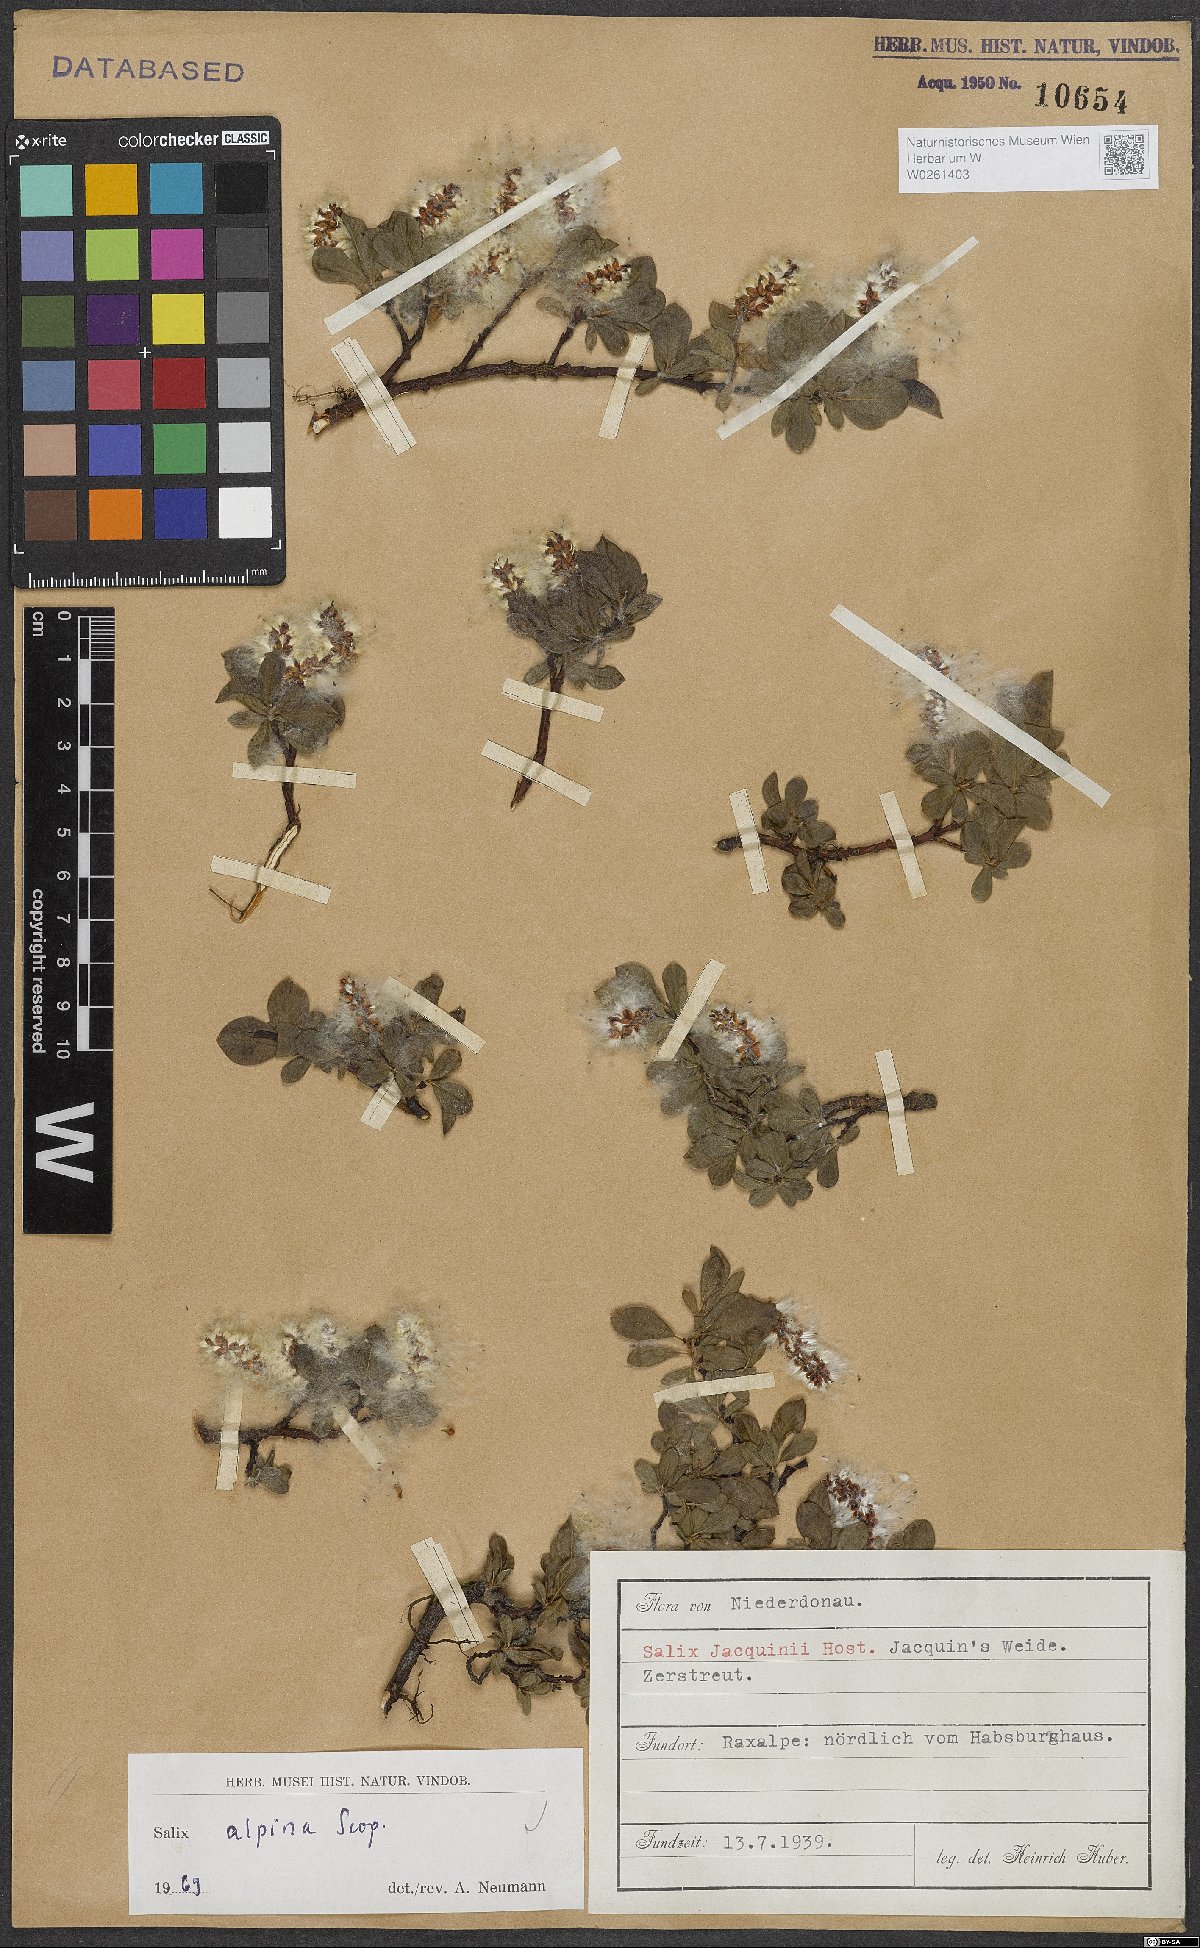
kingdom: Plantae
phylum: Tracheophyta
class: Magnoliopsida
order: Malpighiales
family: Salicaceae
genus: Salix
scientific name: Salix alpina
